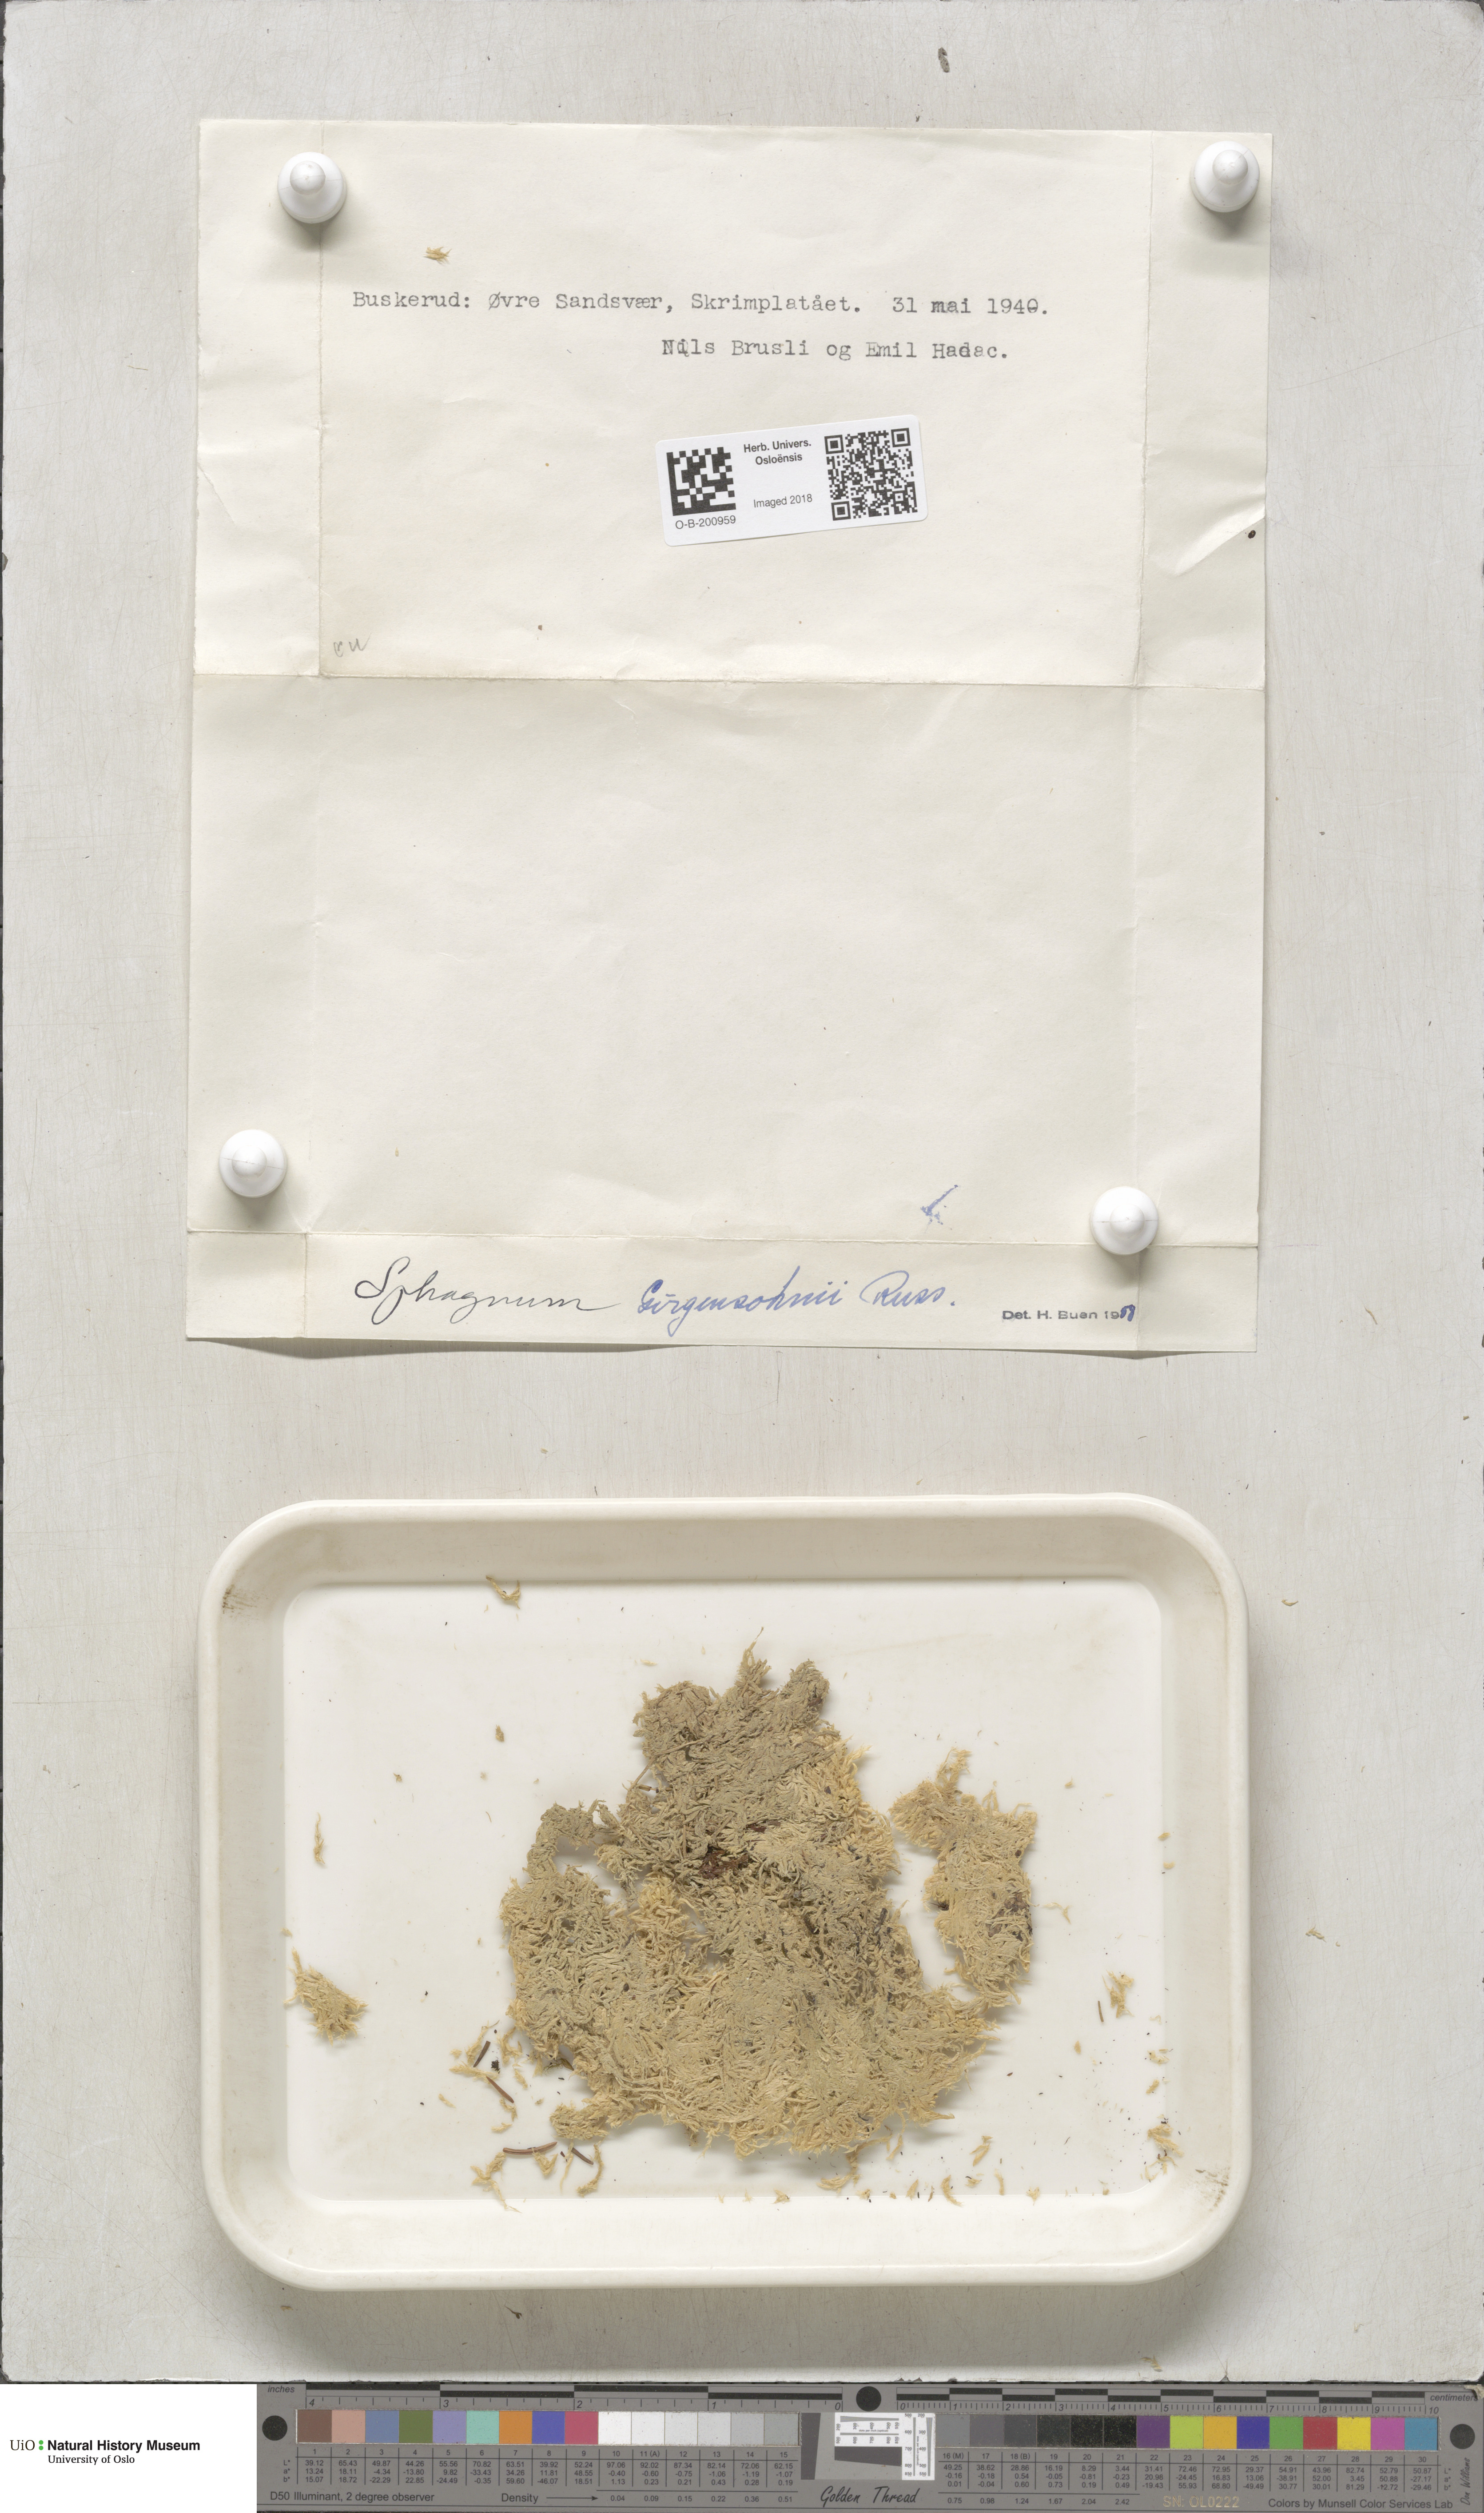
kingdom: Plantae
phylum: Bryophyta
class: Sphagnopsida
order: Sphagnales
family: Sphagnaceae
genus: Sphagnum
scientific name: Sphagnum girgensohnii
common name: Girgensohn's peat moss
